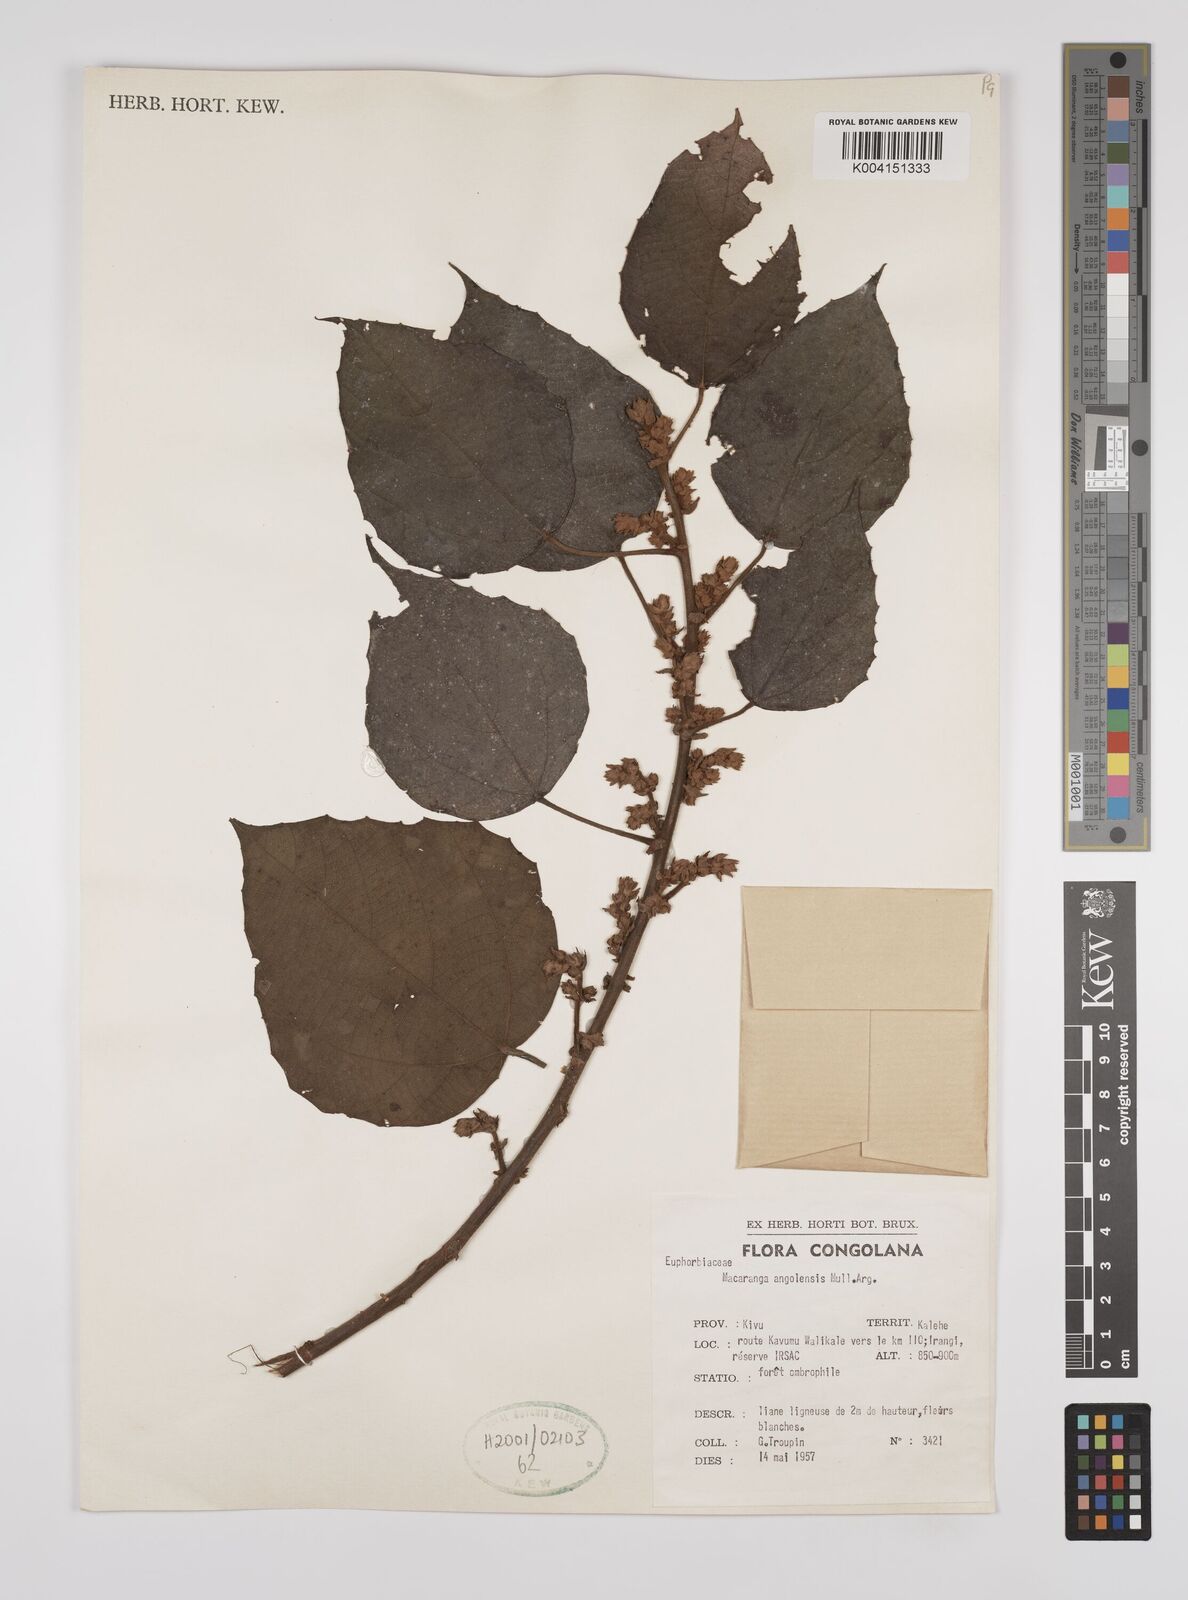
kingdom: Plantae
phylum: Tracheophyta
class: Magnoliopsida
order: Malpighiales
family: Euphorbiaceae
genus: Macaranga
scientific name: Macaranga angolensis
